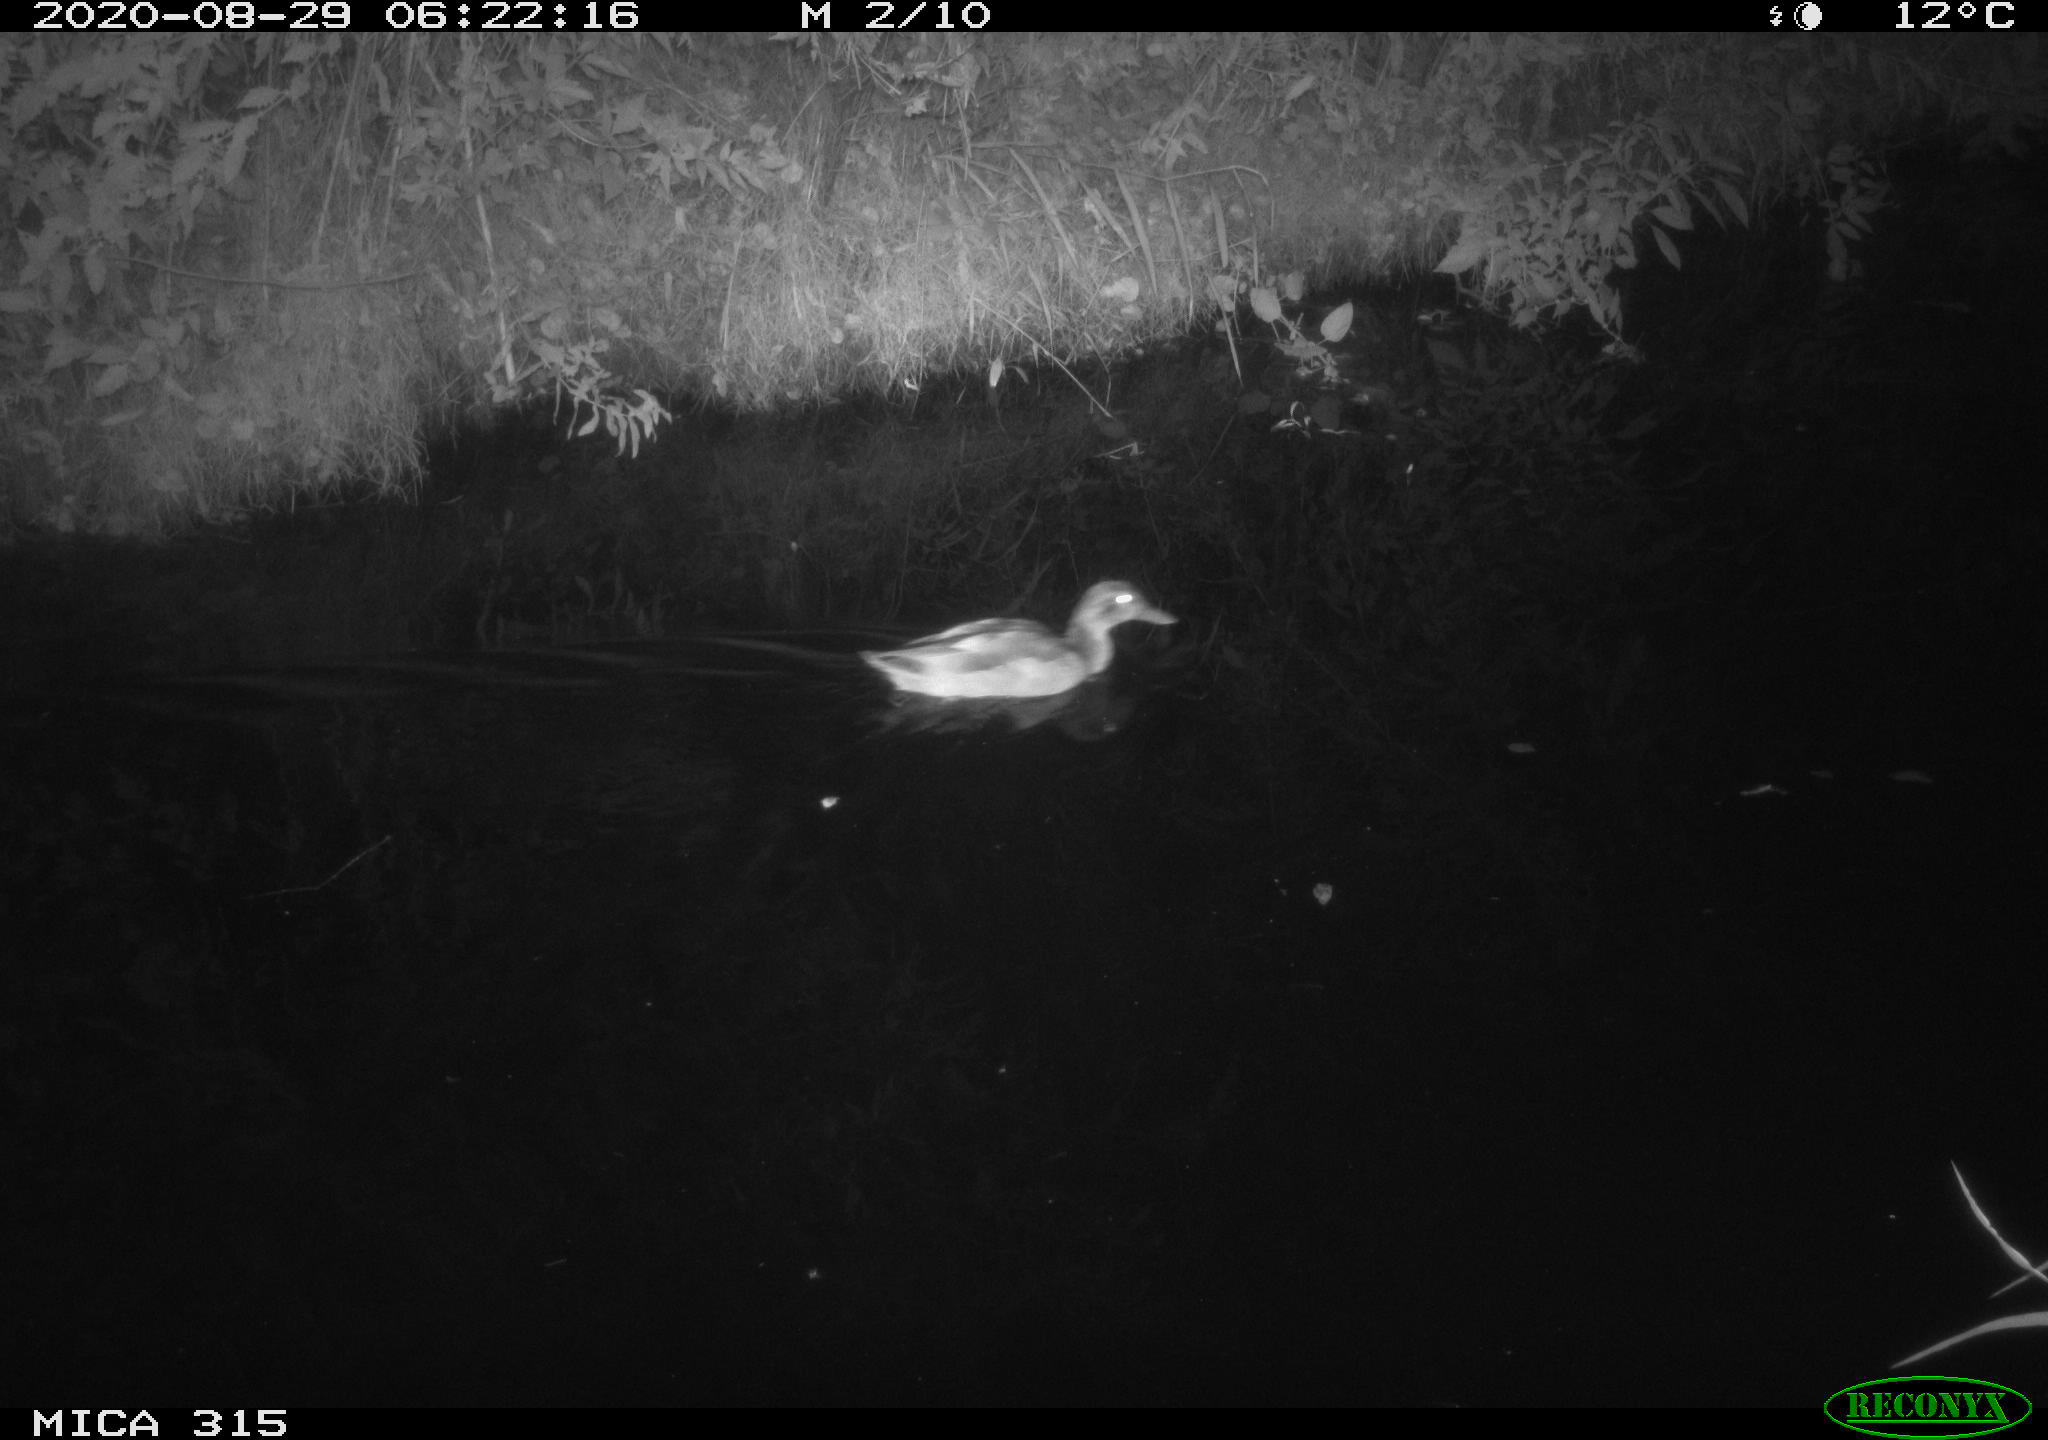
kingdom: Animalia
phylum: Chordata
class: Aves
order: Anseriformes
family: Anatidae
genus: Anas
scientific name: Anas platyrhynchos
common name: Mallard
